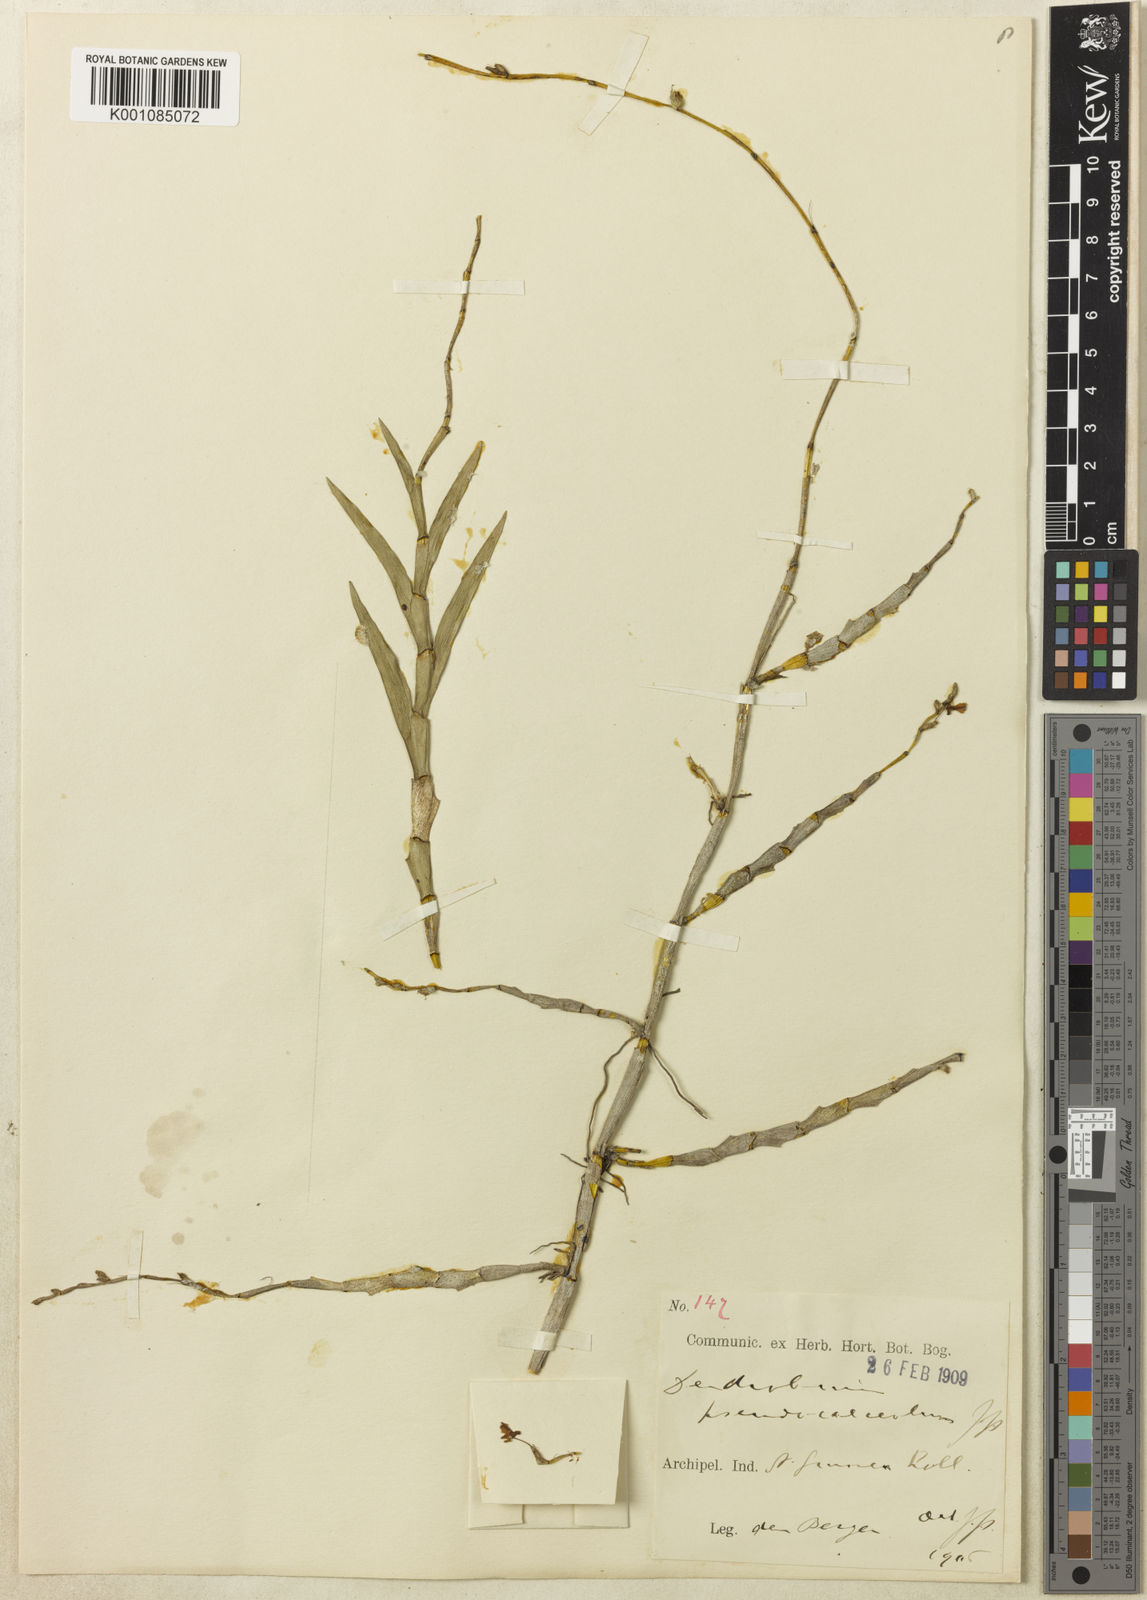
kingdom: Plantae
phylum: Tracheophyta
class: Liliopsida
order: Asparagales
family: Orchidaceae
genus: Dendrobium
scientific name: Dendrobium pseudocalceolum
